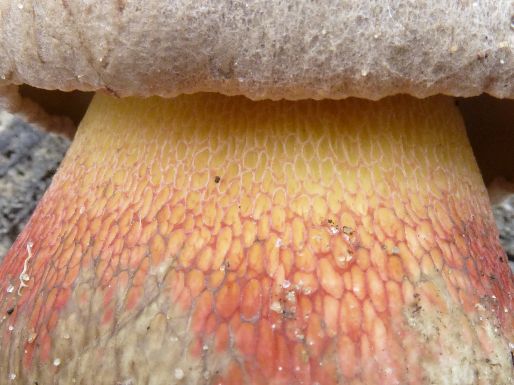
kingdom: Fungi
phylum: Basidiomycota
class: Agaricomycetes
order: Boletales
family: Boletaceae
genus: Caloboletus
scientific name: Caloboletus calopus
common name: skønfodet rørhat
